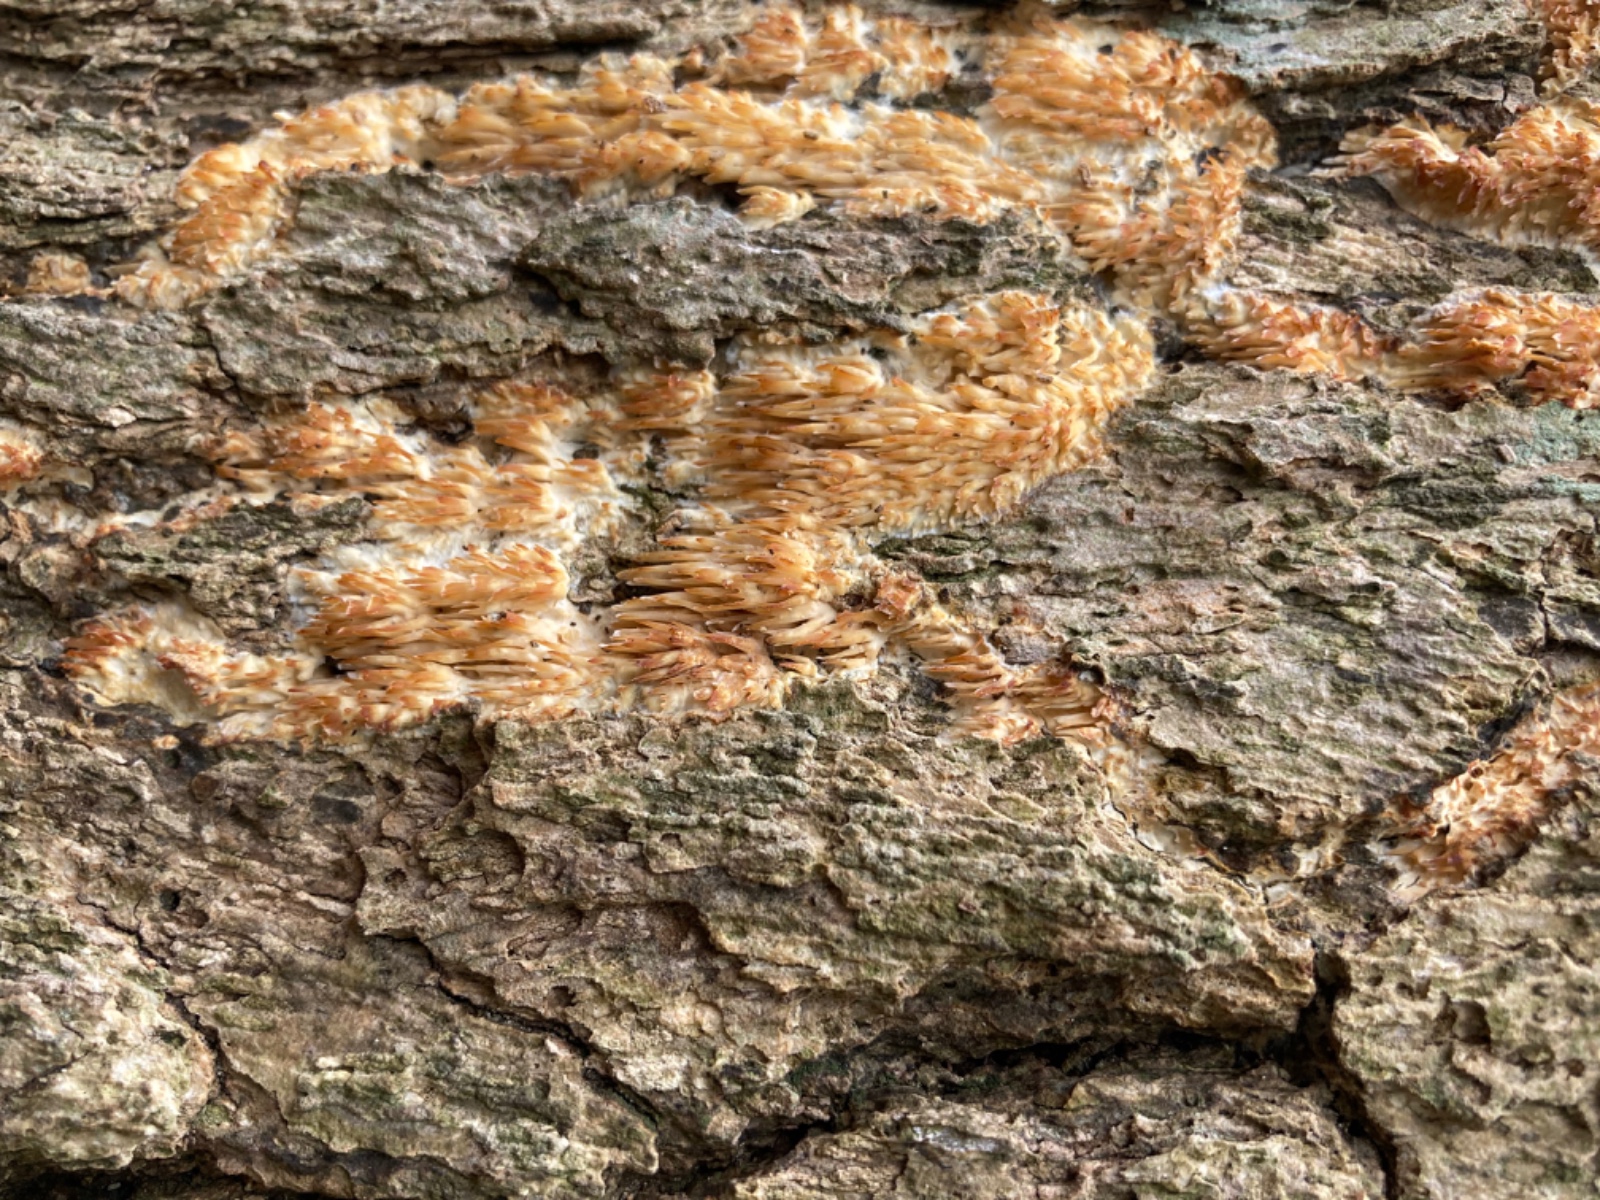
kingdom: Fungi
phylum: Basidiomycota
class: Agaricomycetes
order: Russulales
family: Hericiaceae
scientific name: Hericiaceae
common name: koralpigsvampfamilien
